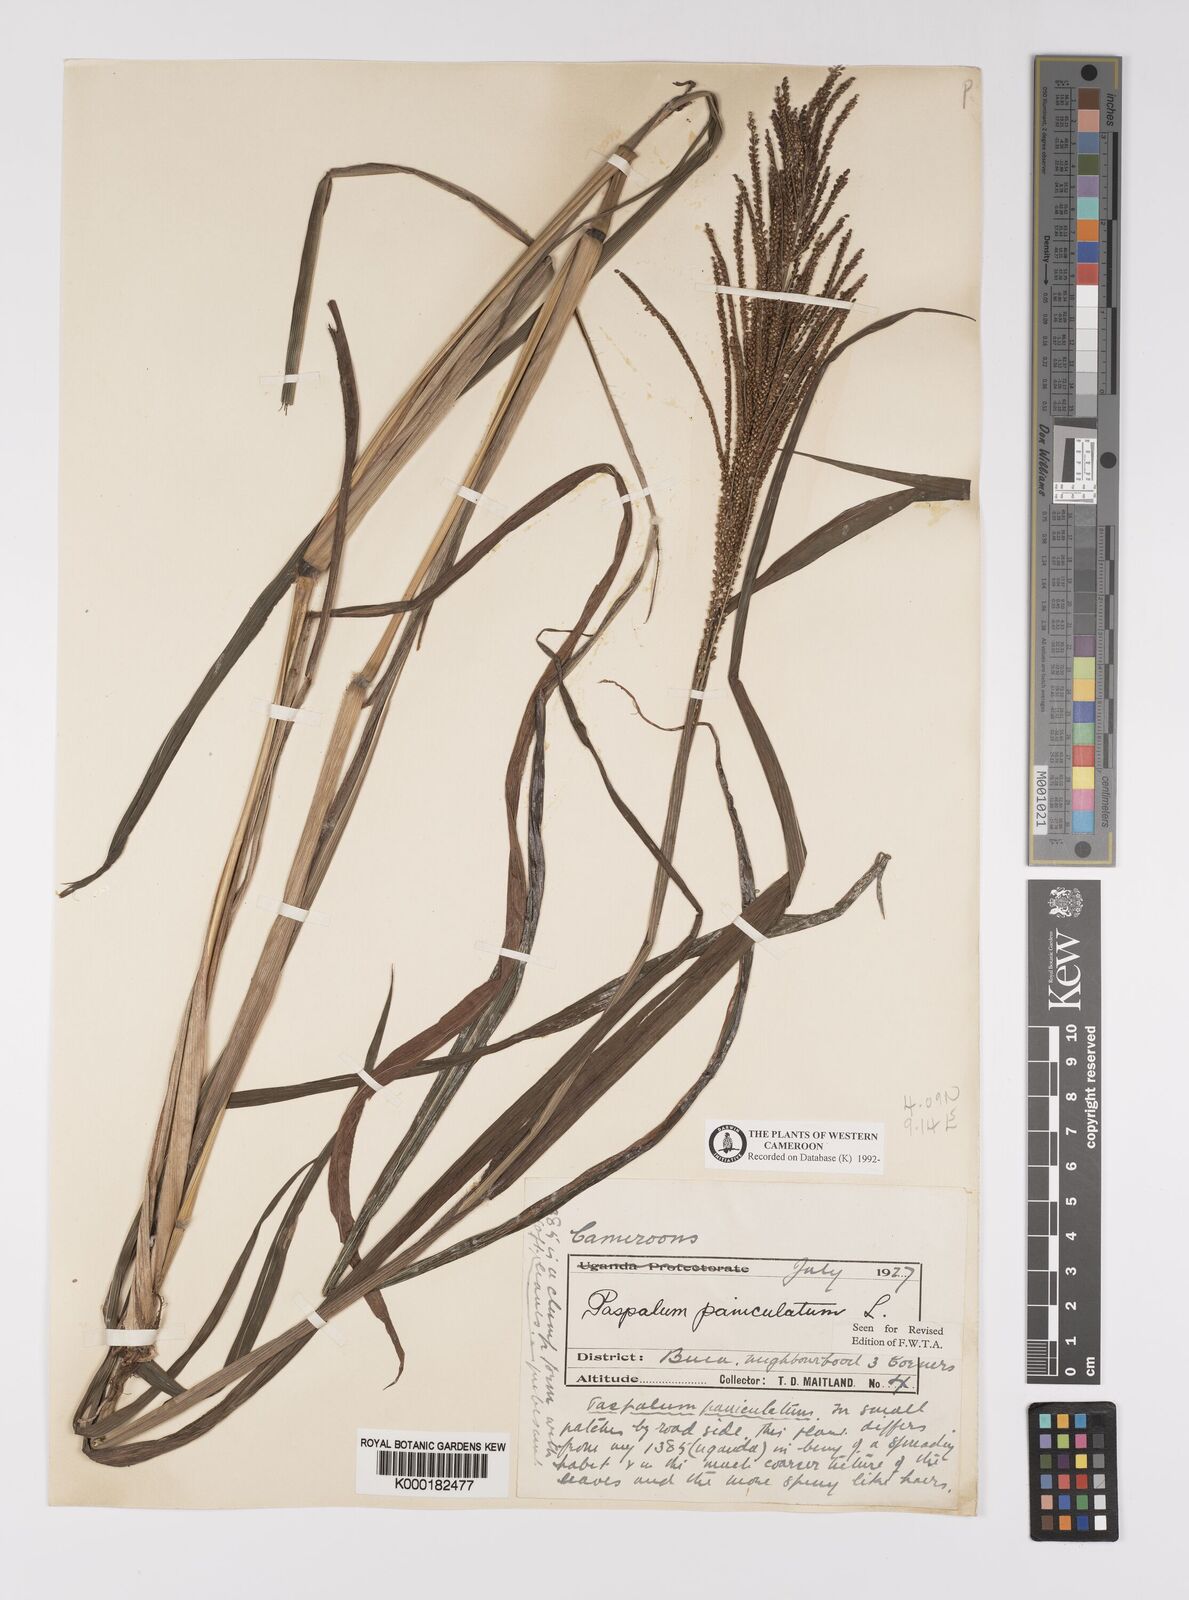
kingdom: Plantae
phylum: Tracheophyta
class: Liliopsida
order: Poales
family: Poaceae
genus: Paspalum
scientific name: Paspalum paniculatum
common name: Arrocillo
